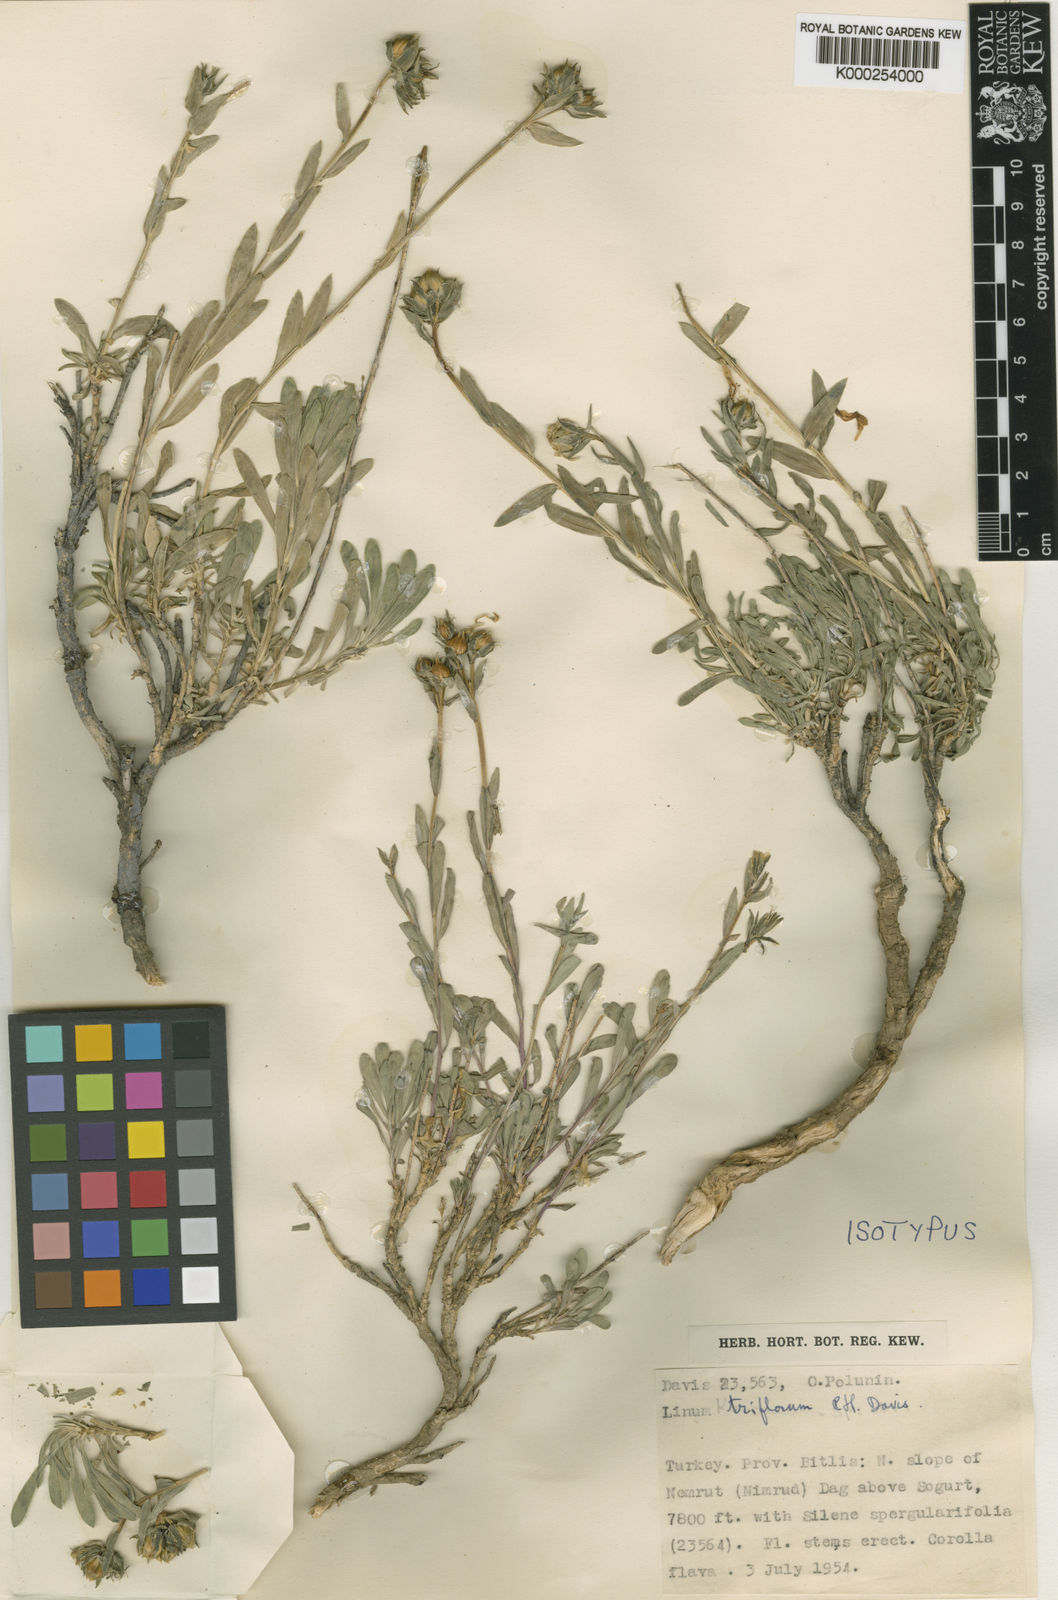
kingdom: Plantae
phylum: Tracheophyta
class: Magnoliopsida
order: Malpighiales
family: Linaceae
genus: Linum
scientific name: Linum triflorum
